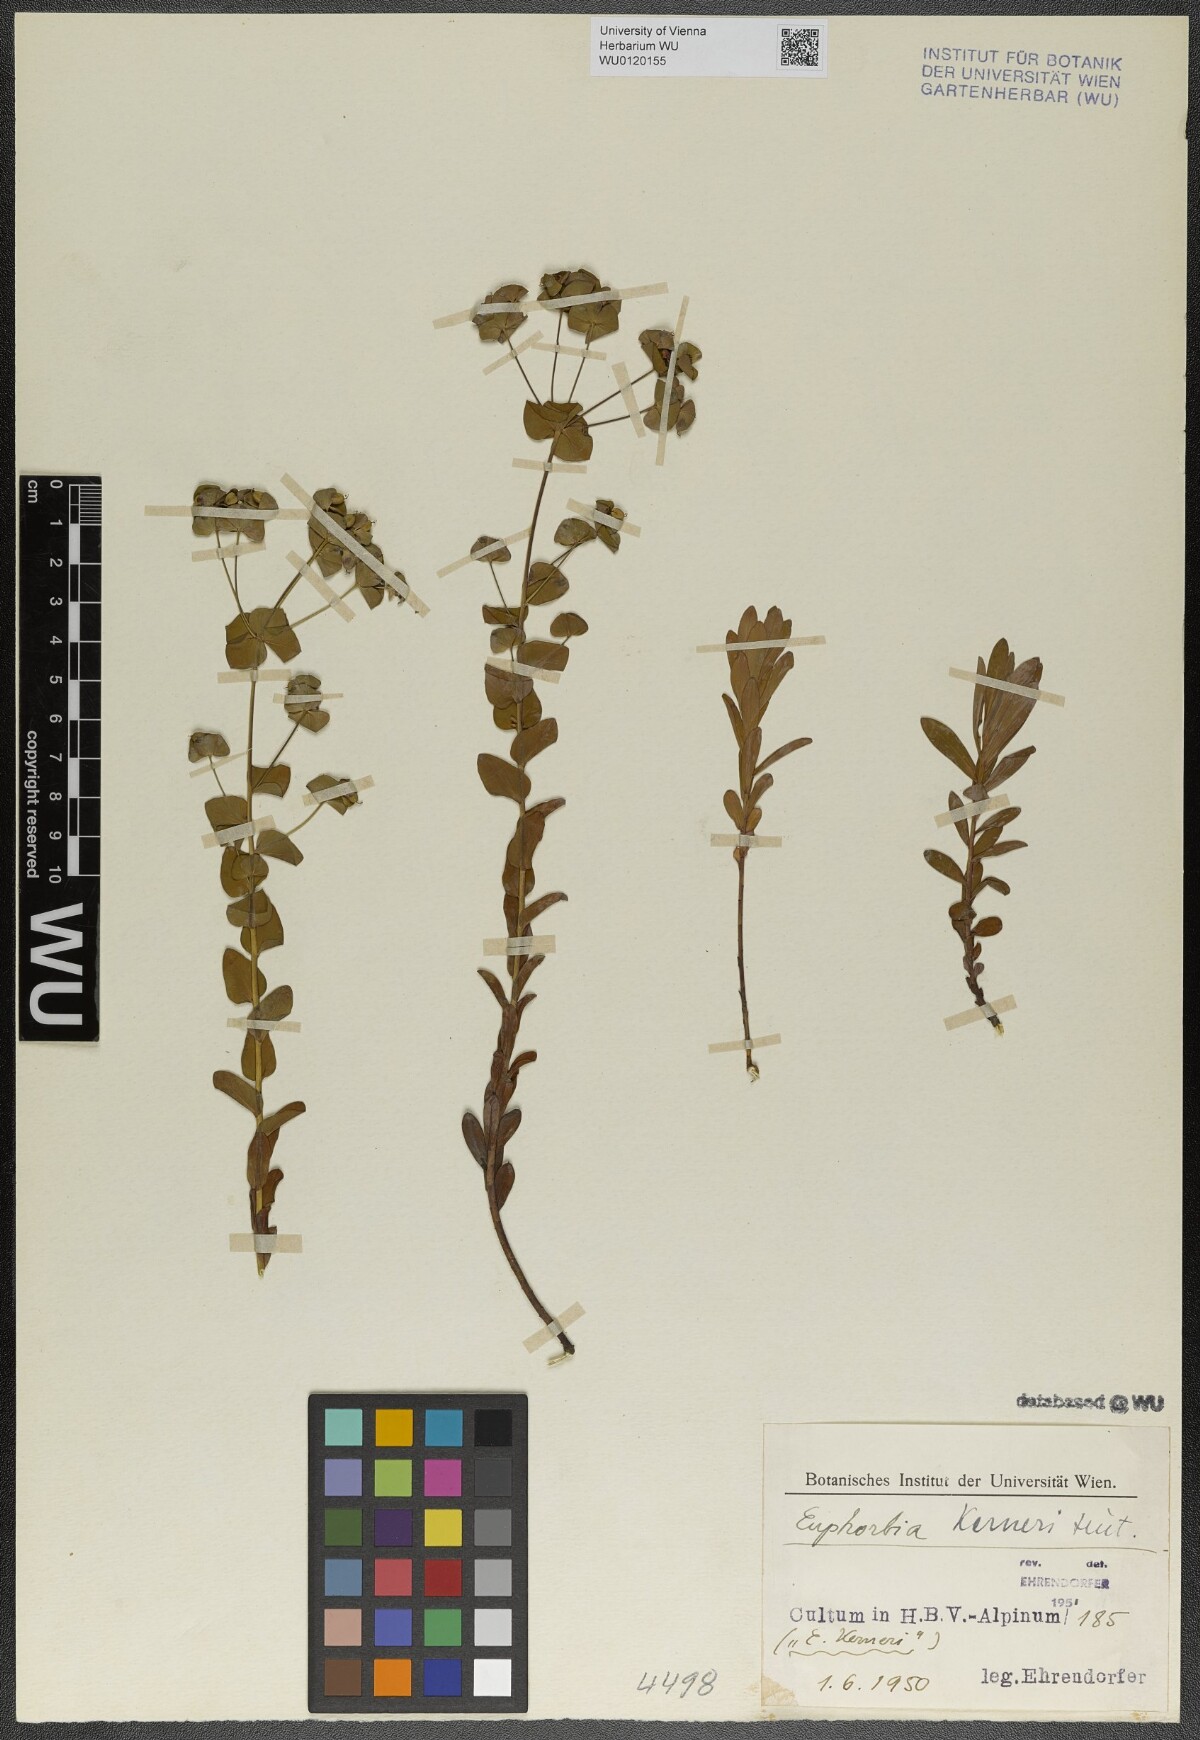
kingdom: Plantae
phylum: Tracheophyta
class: Magnoliopsida
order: Malpighiales
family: Euphorbiaceae
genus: Euphorbia
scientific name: Euphorbia kerneri
